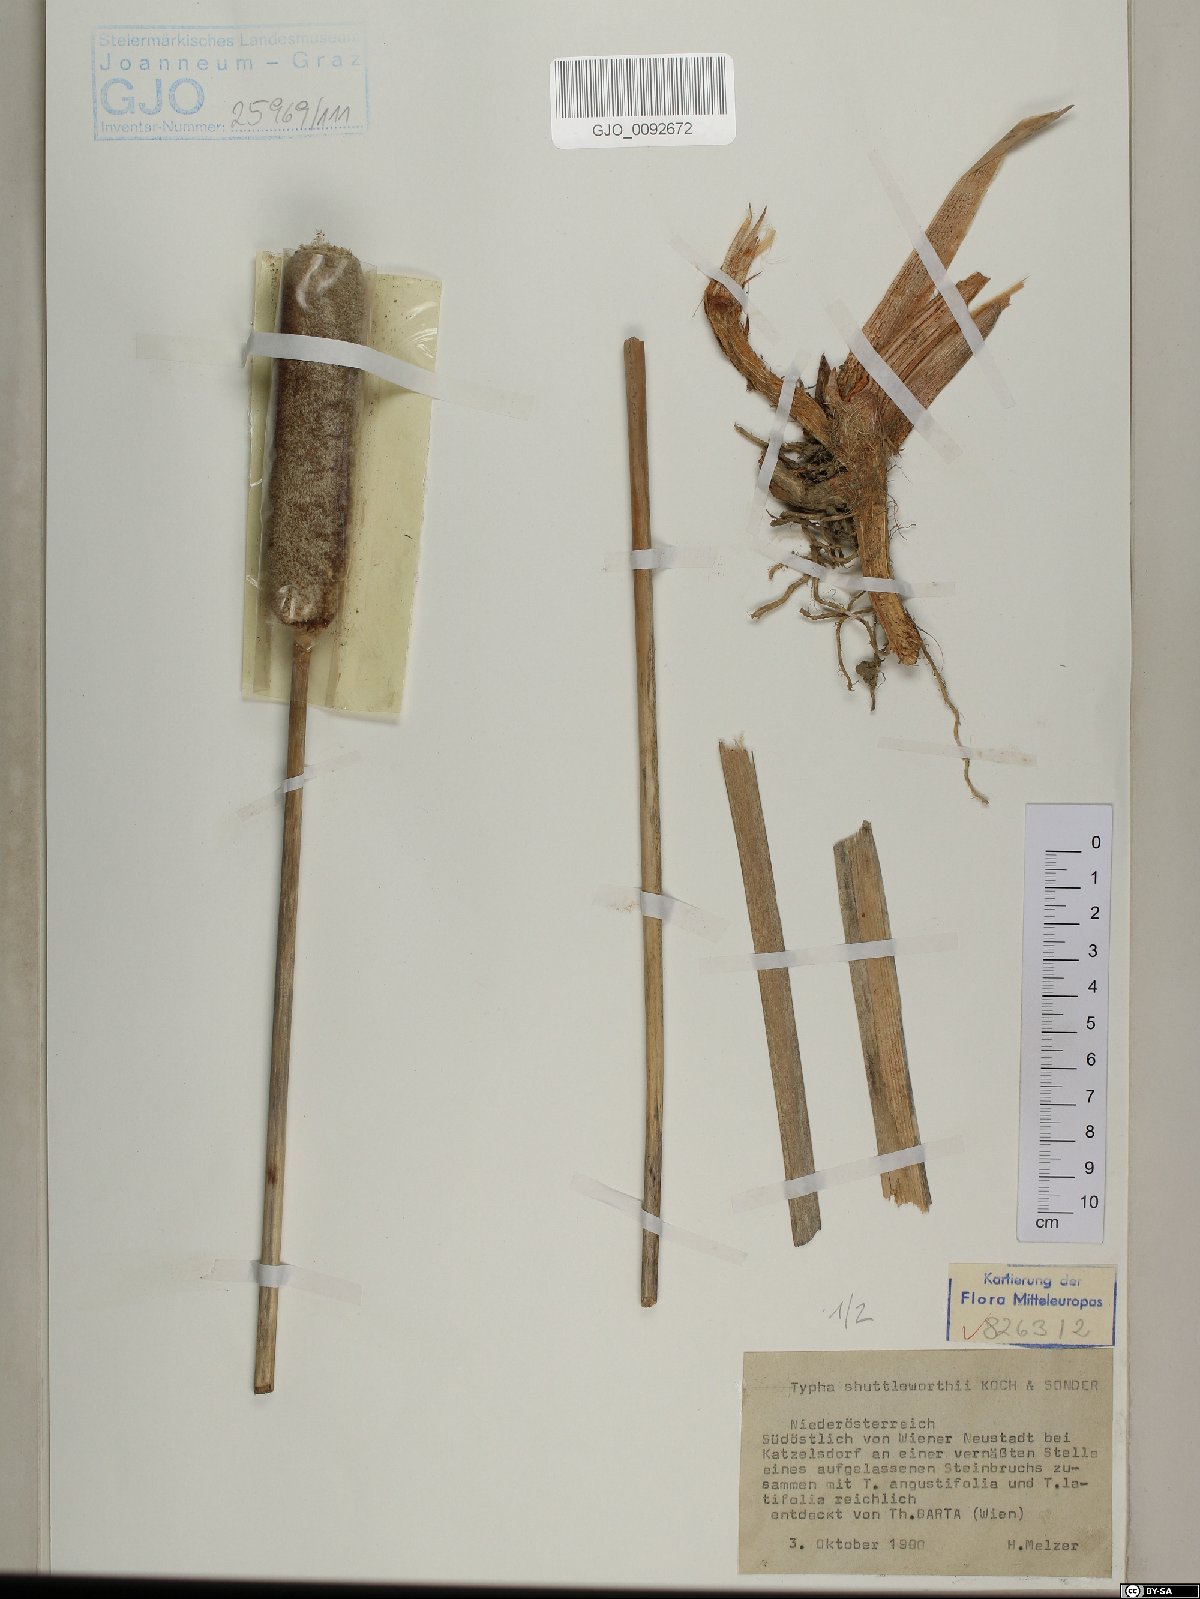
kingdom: Plantae
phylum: Tracheophyta
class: Liliopsida
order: Poales
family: Typhaceae
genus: Typha
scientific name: Typha shuttleworthii
